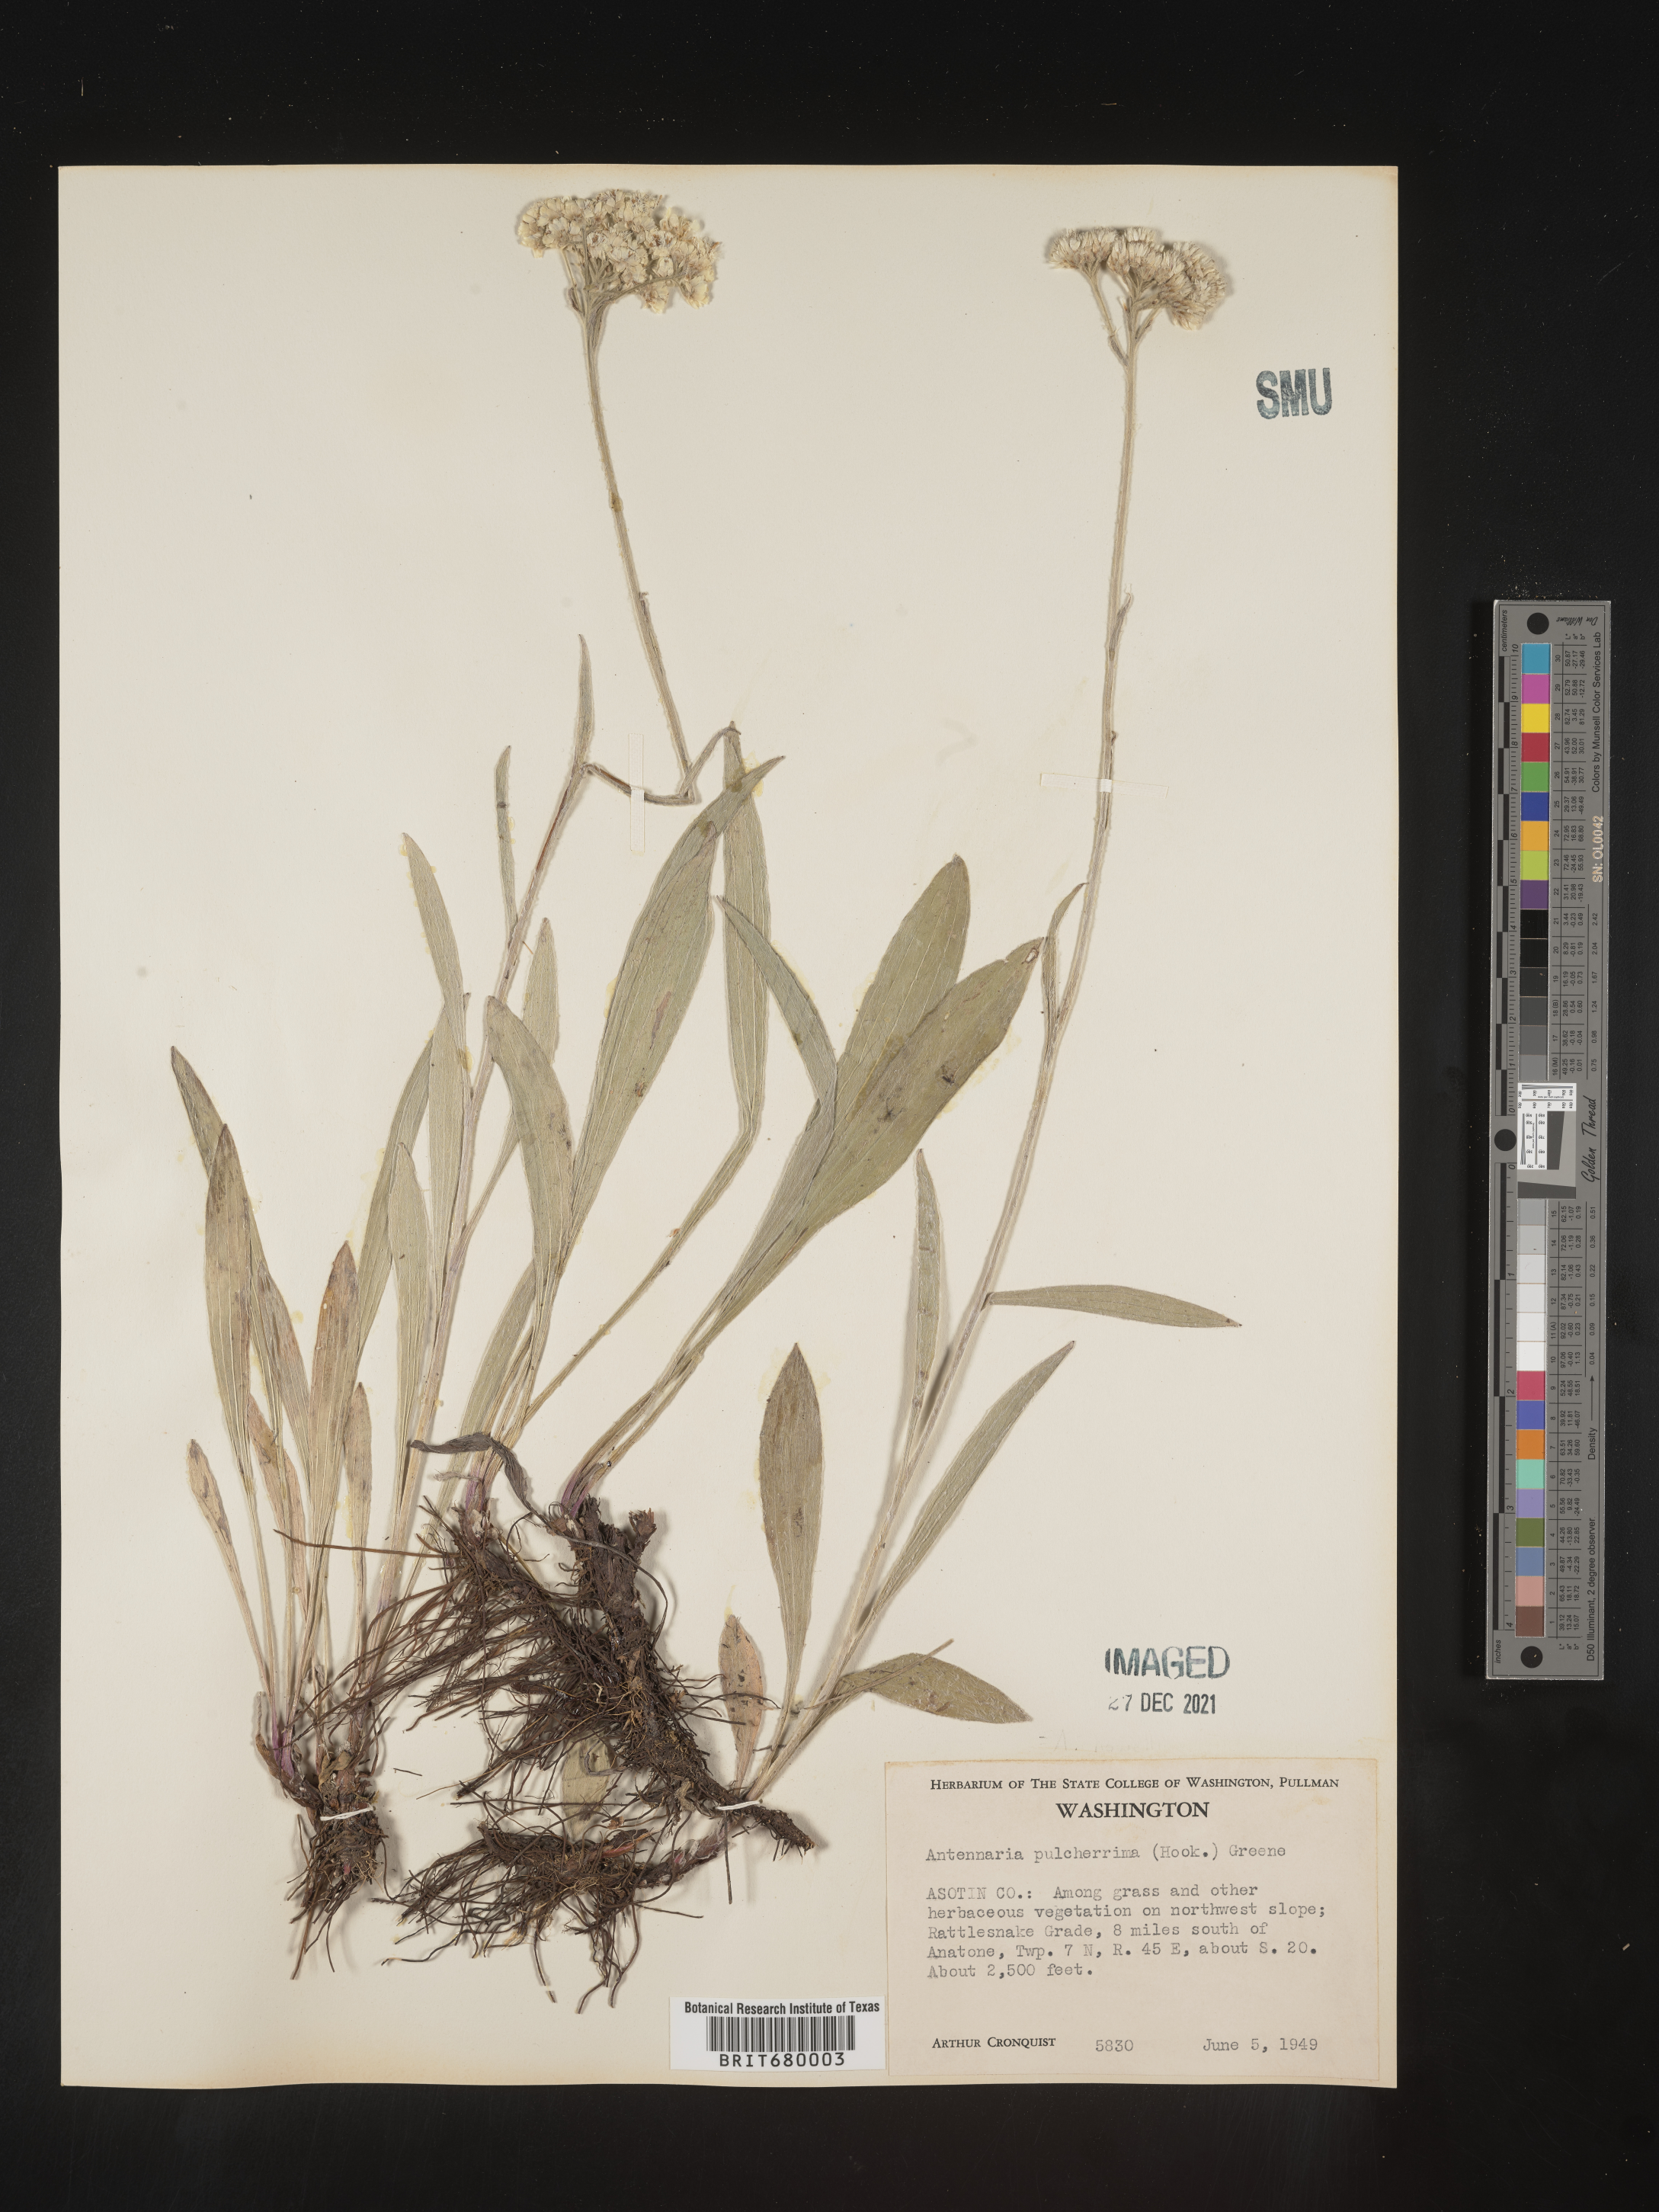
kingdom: Plantae
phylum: Tracheophyta
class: Magnoliopsida
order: Asterales
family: Asteraceae
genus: Antennaria
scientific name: Antennaria pulcherrima
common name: Handsome pussytoes
